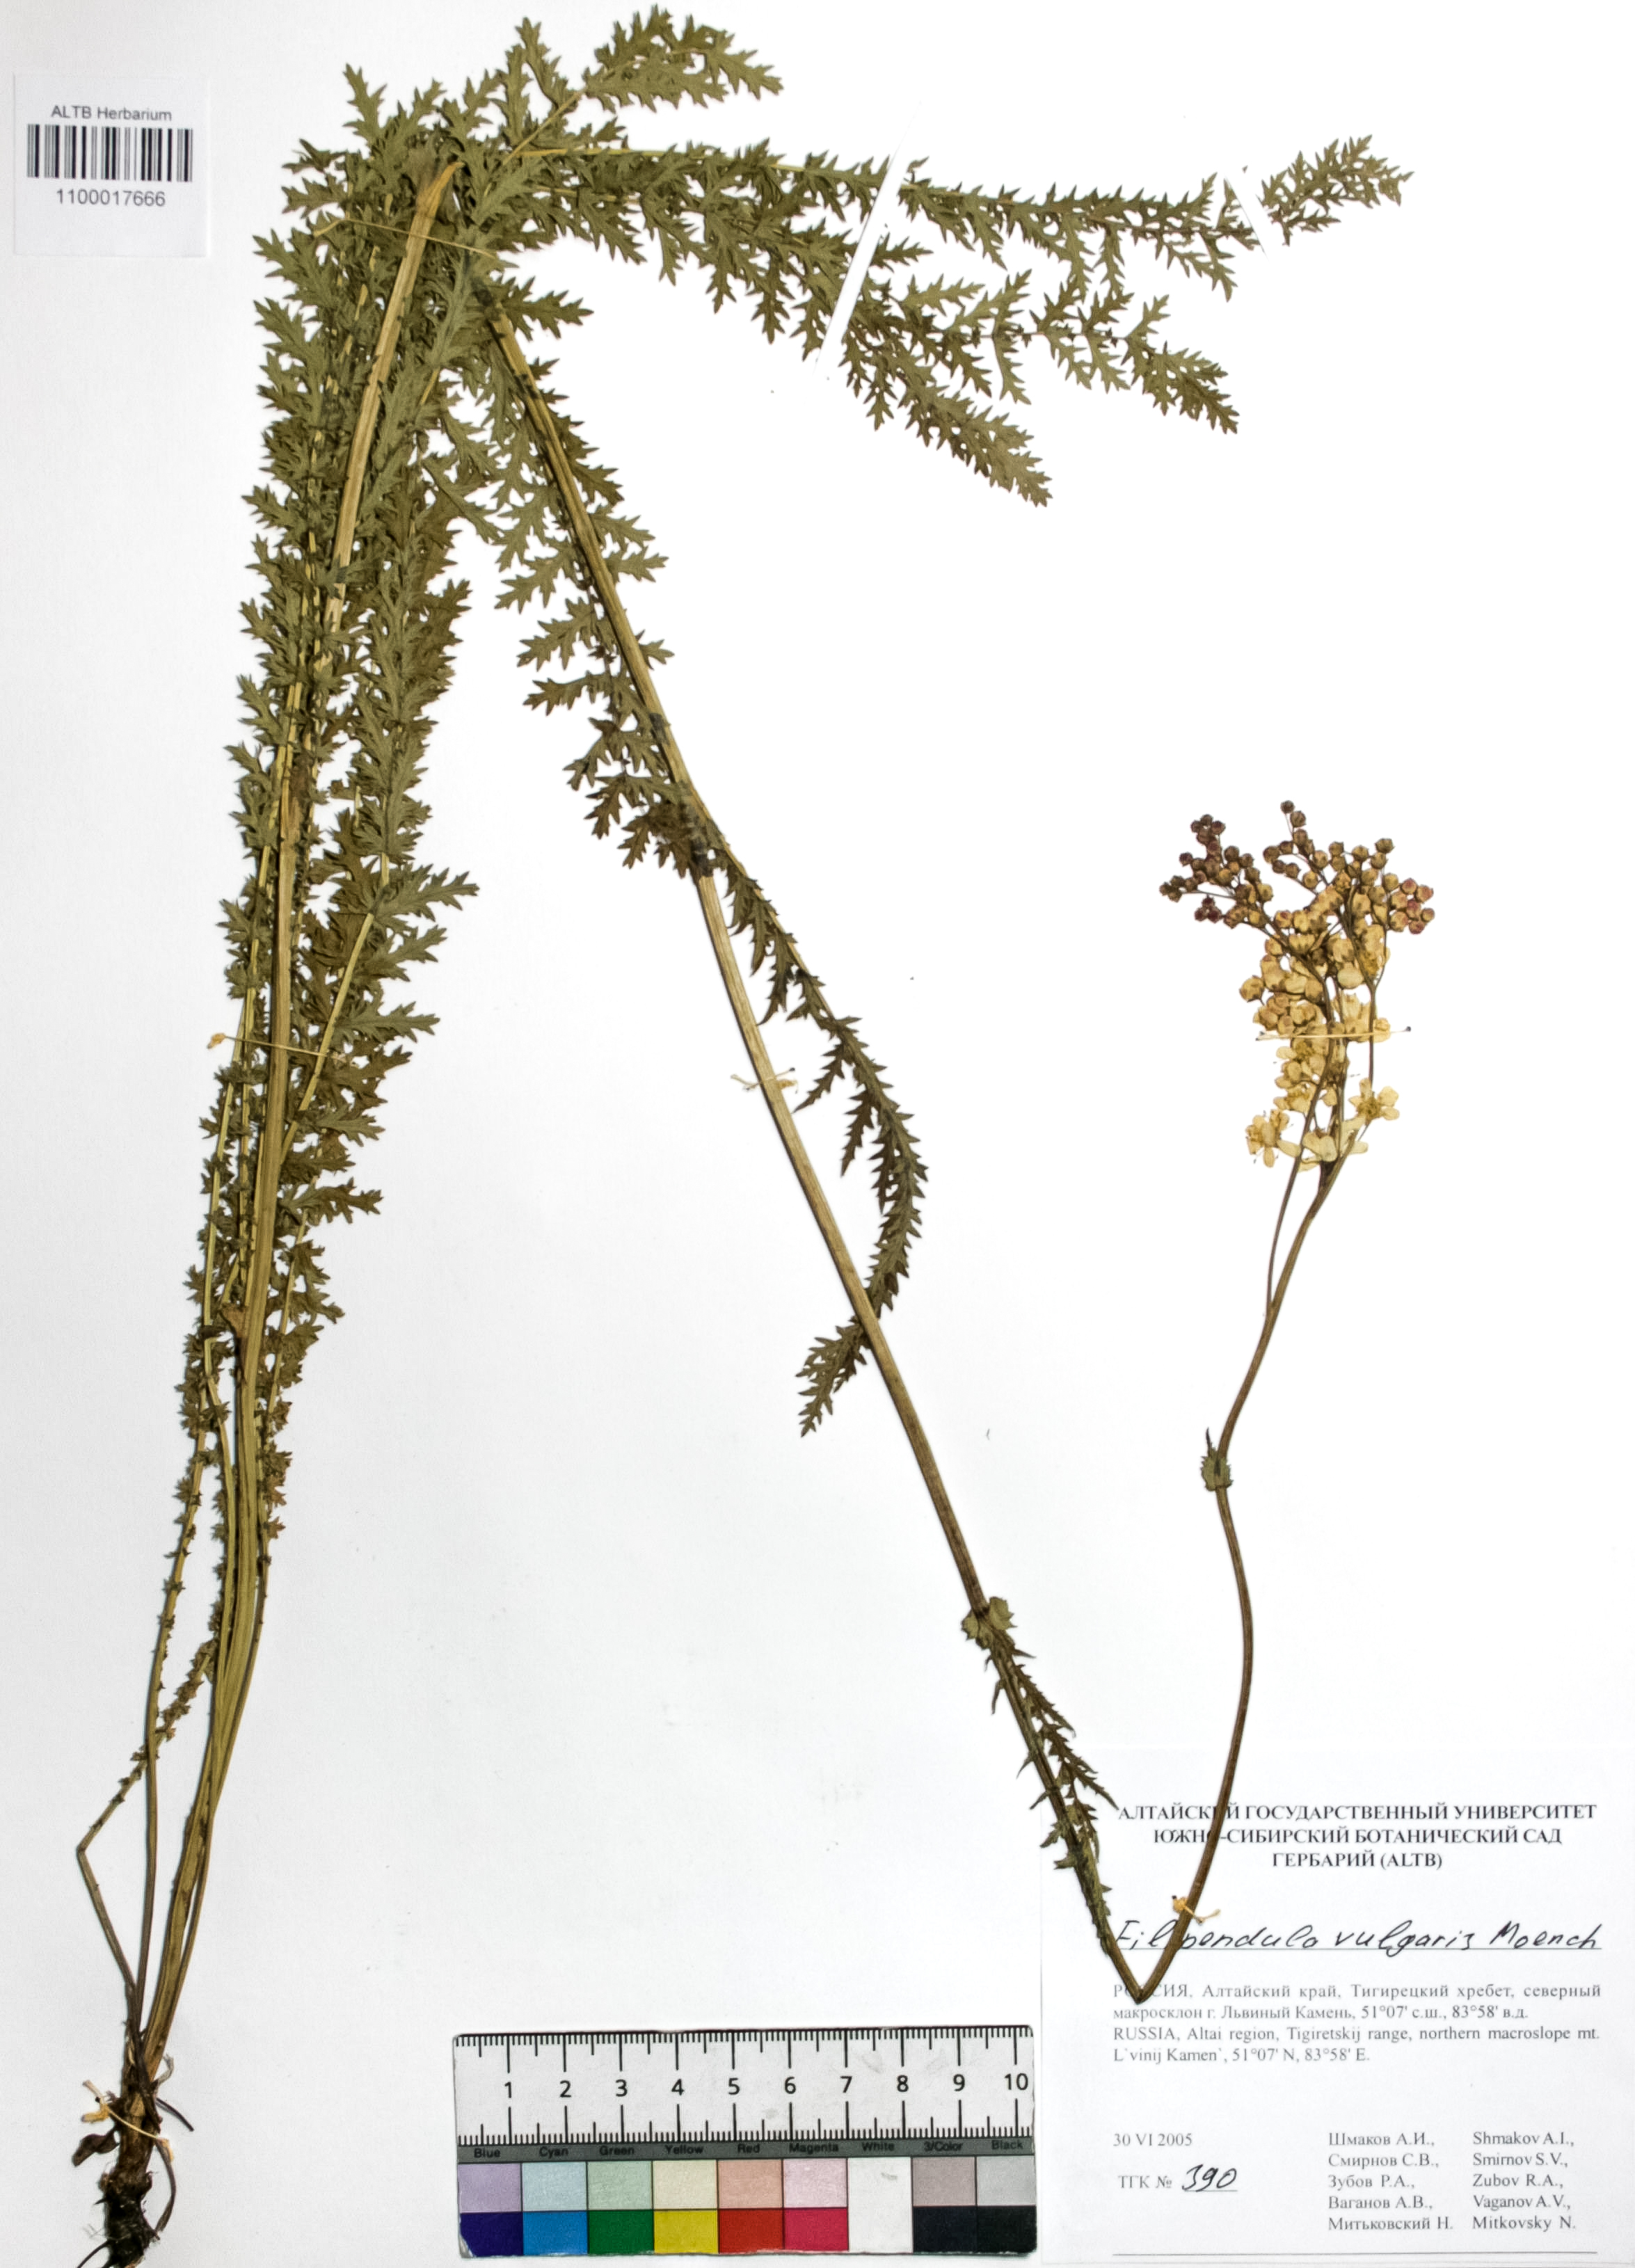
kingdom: Plantae
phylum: Tracheophyta
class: Magnoliopsida
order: Rosales
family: Rosaceae
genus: Filipendula
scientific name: Filipendula vulgaris
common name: Dropwort
